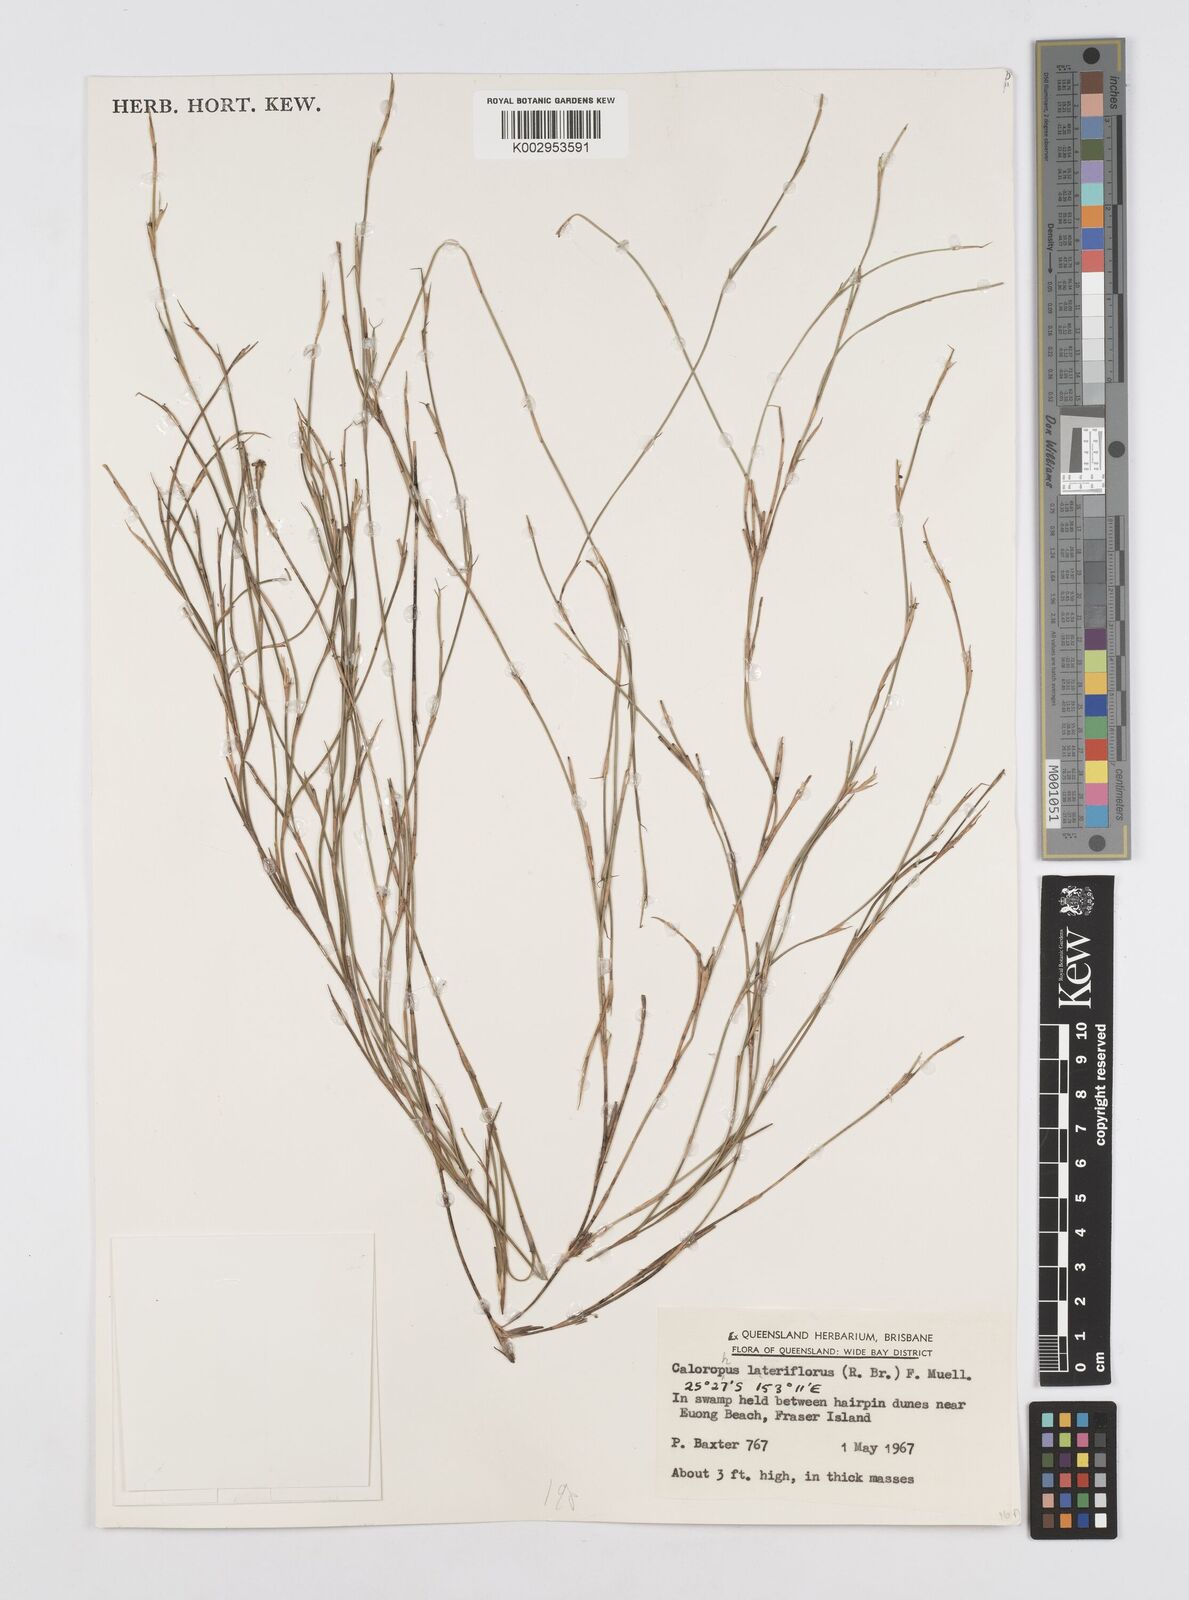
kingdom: Plantae
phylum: Tracheophyta
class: Liliopsida
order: Poales
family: Restionaceae
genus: Empodisma
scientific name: Empodisma minus
